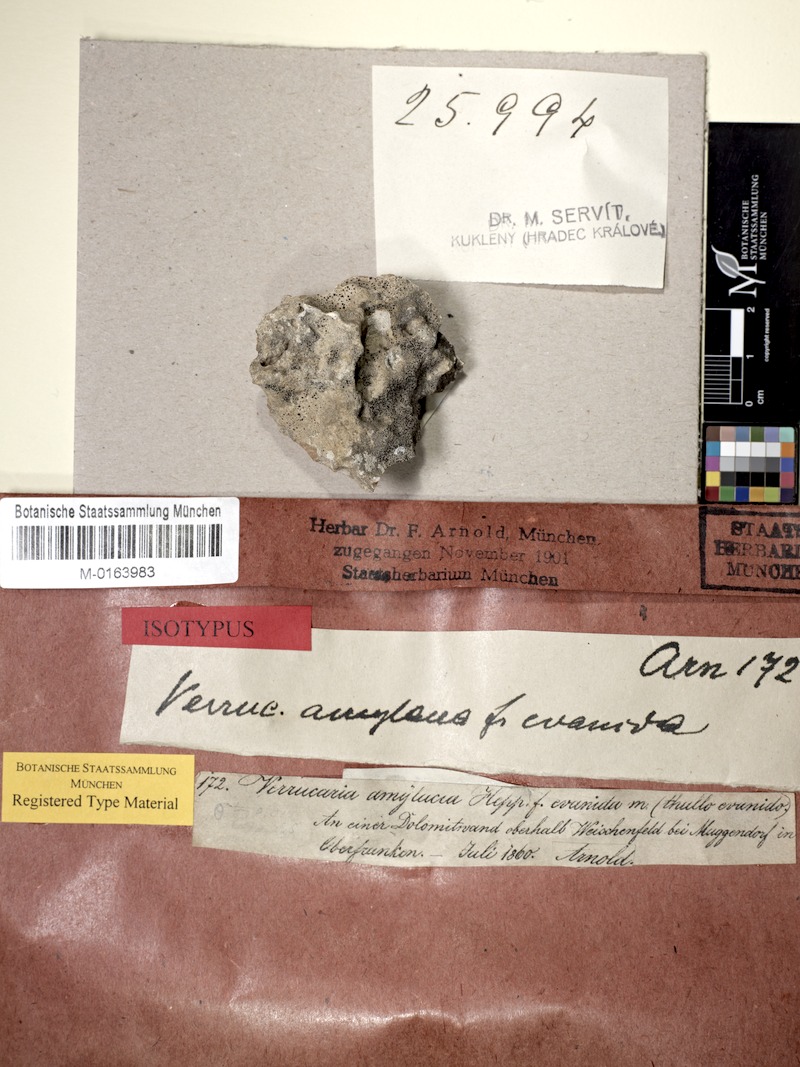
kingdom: Fungi
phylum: Ascomycota
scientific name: Ascomycota
